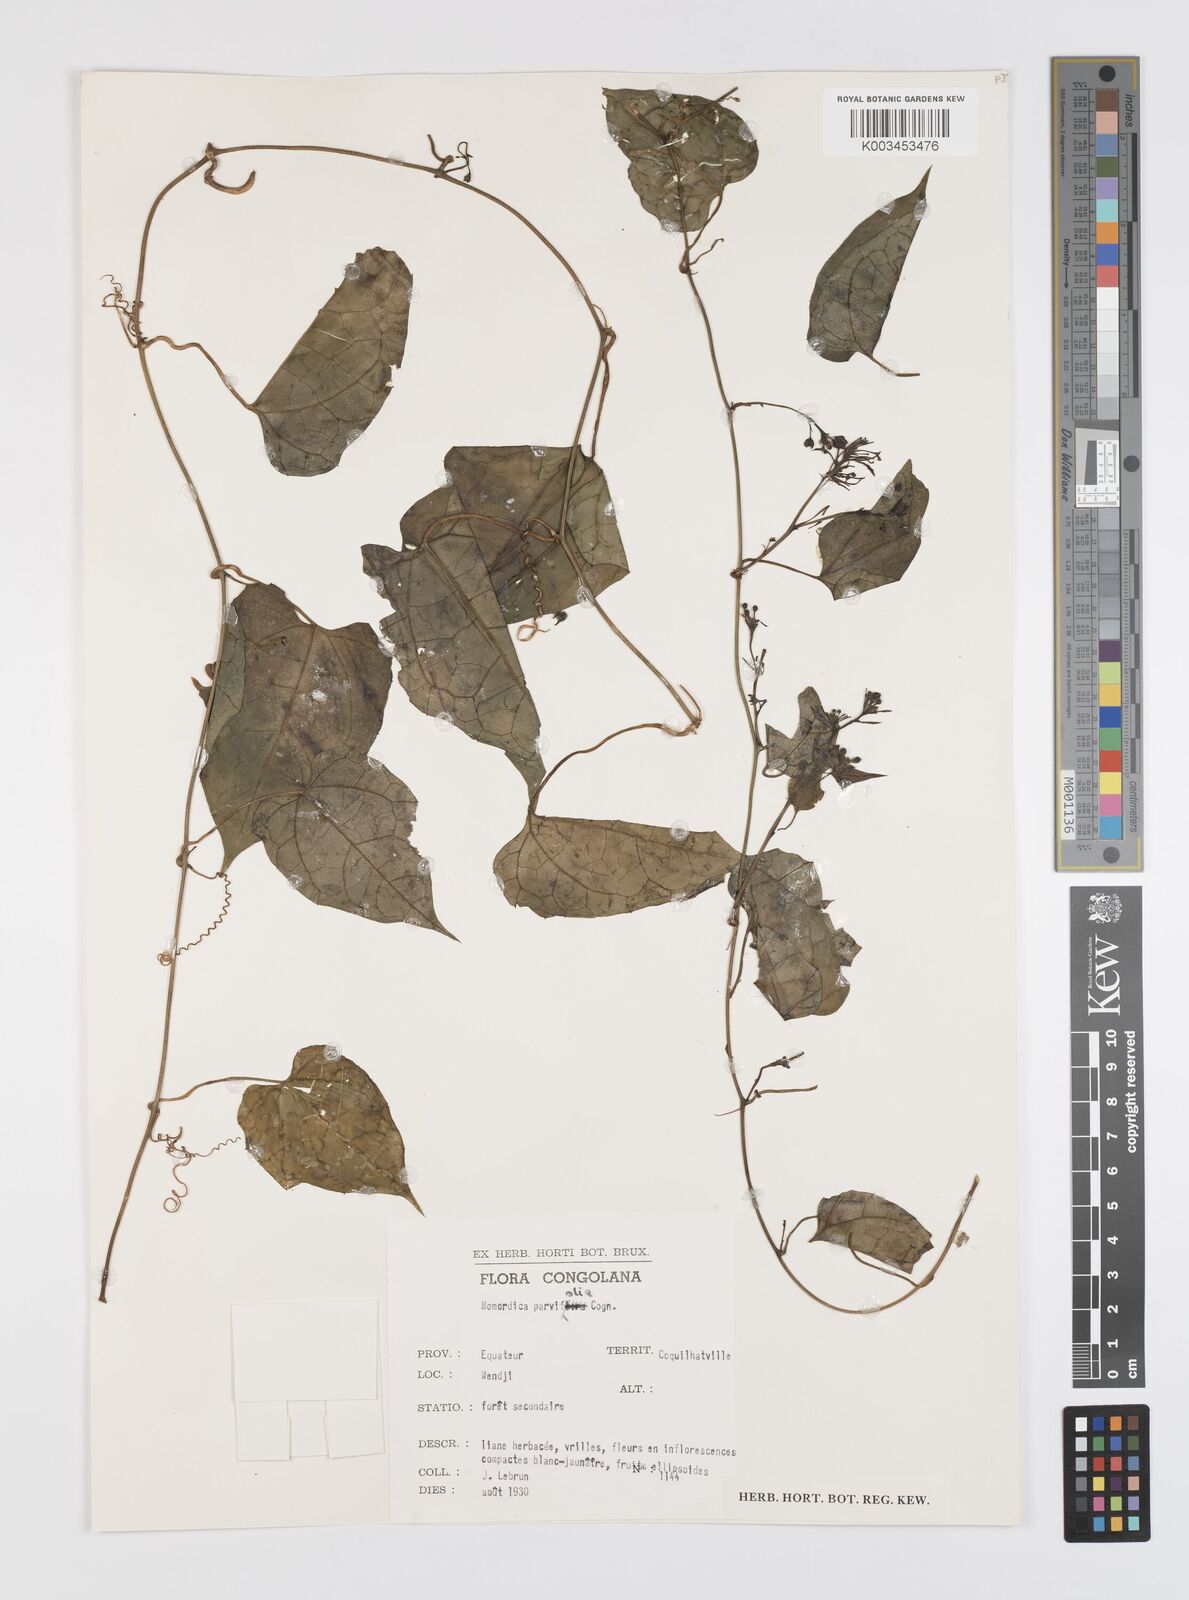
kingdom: Plantae
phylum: Tracheophyta
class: Magnoliopsida
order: Cucurbitales
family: Cucurbitaceae
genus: Momordica
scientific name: Momordica parvifolia
